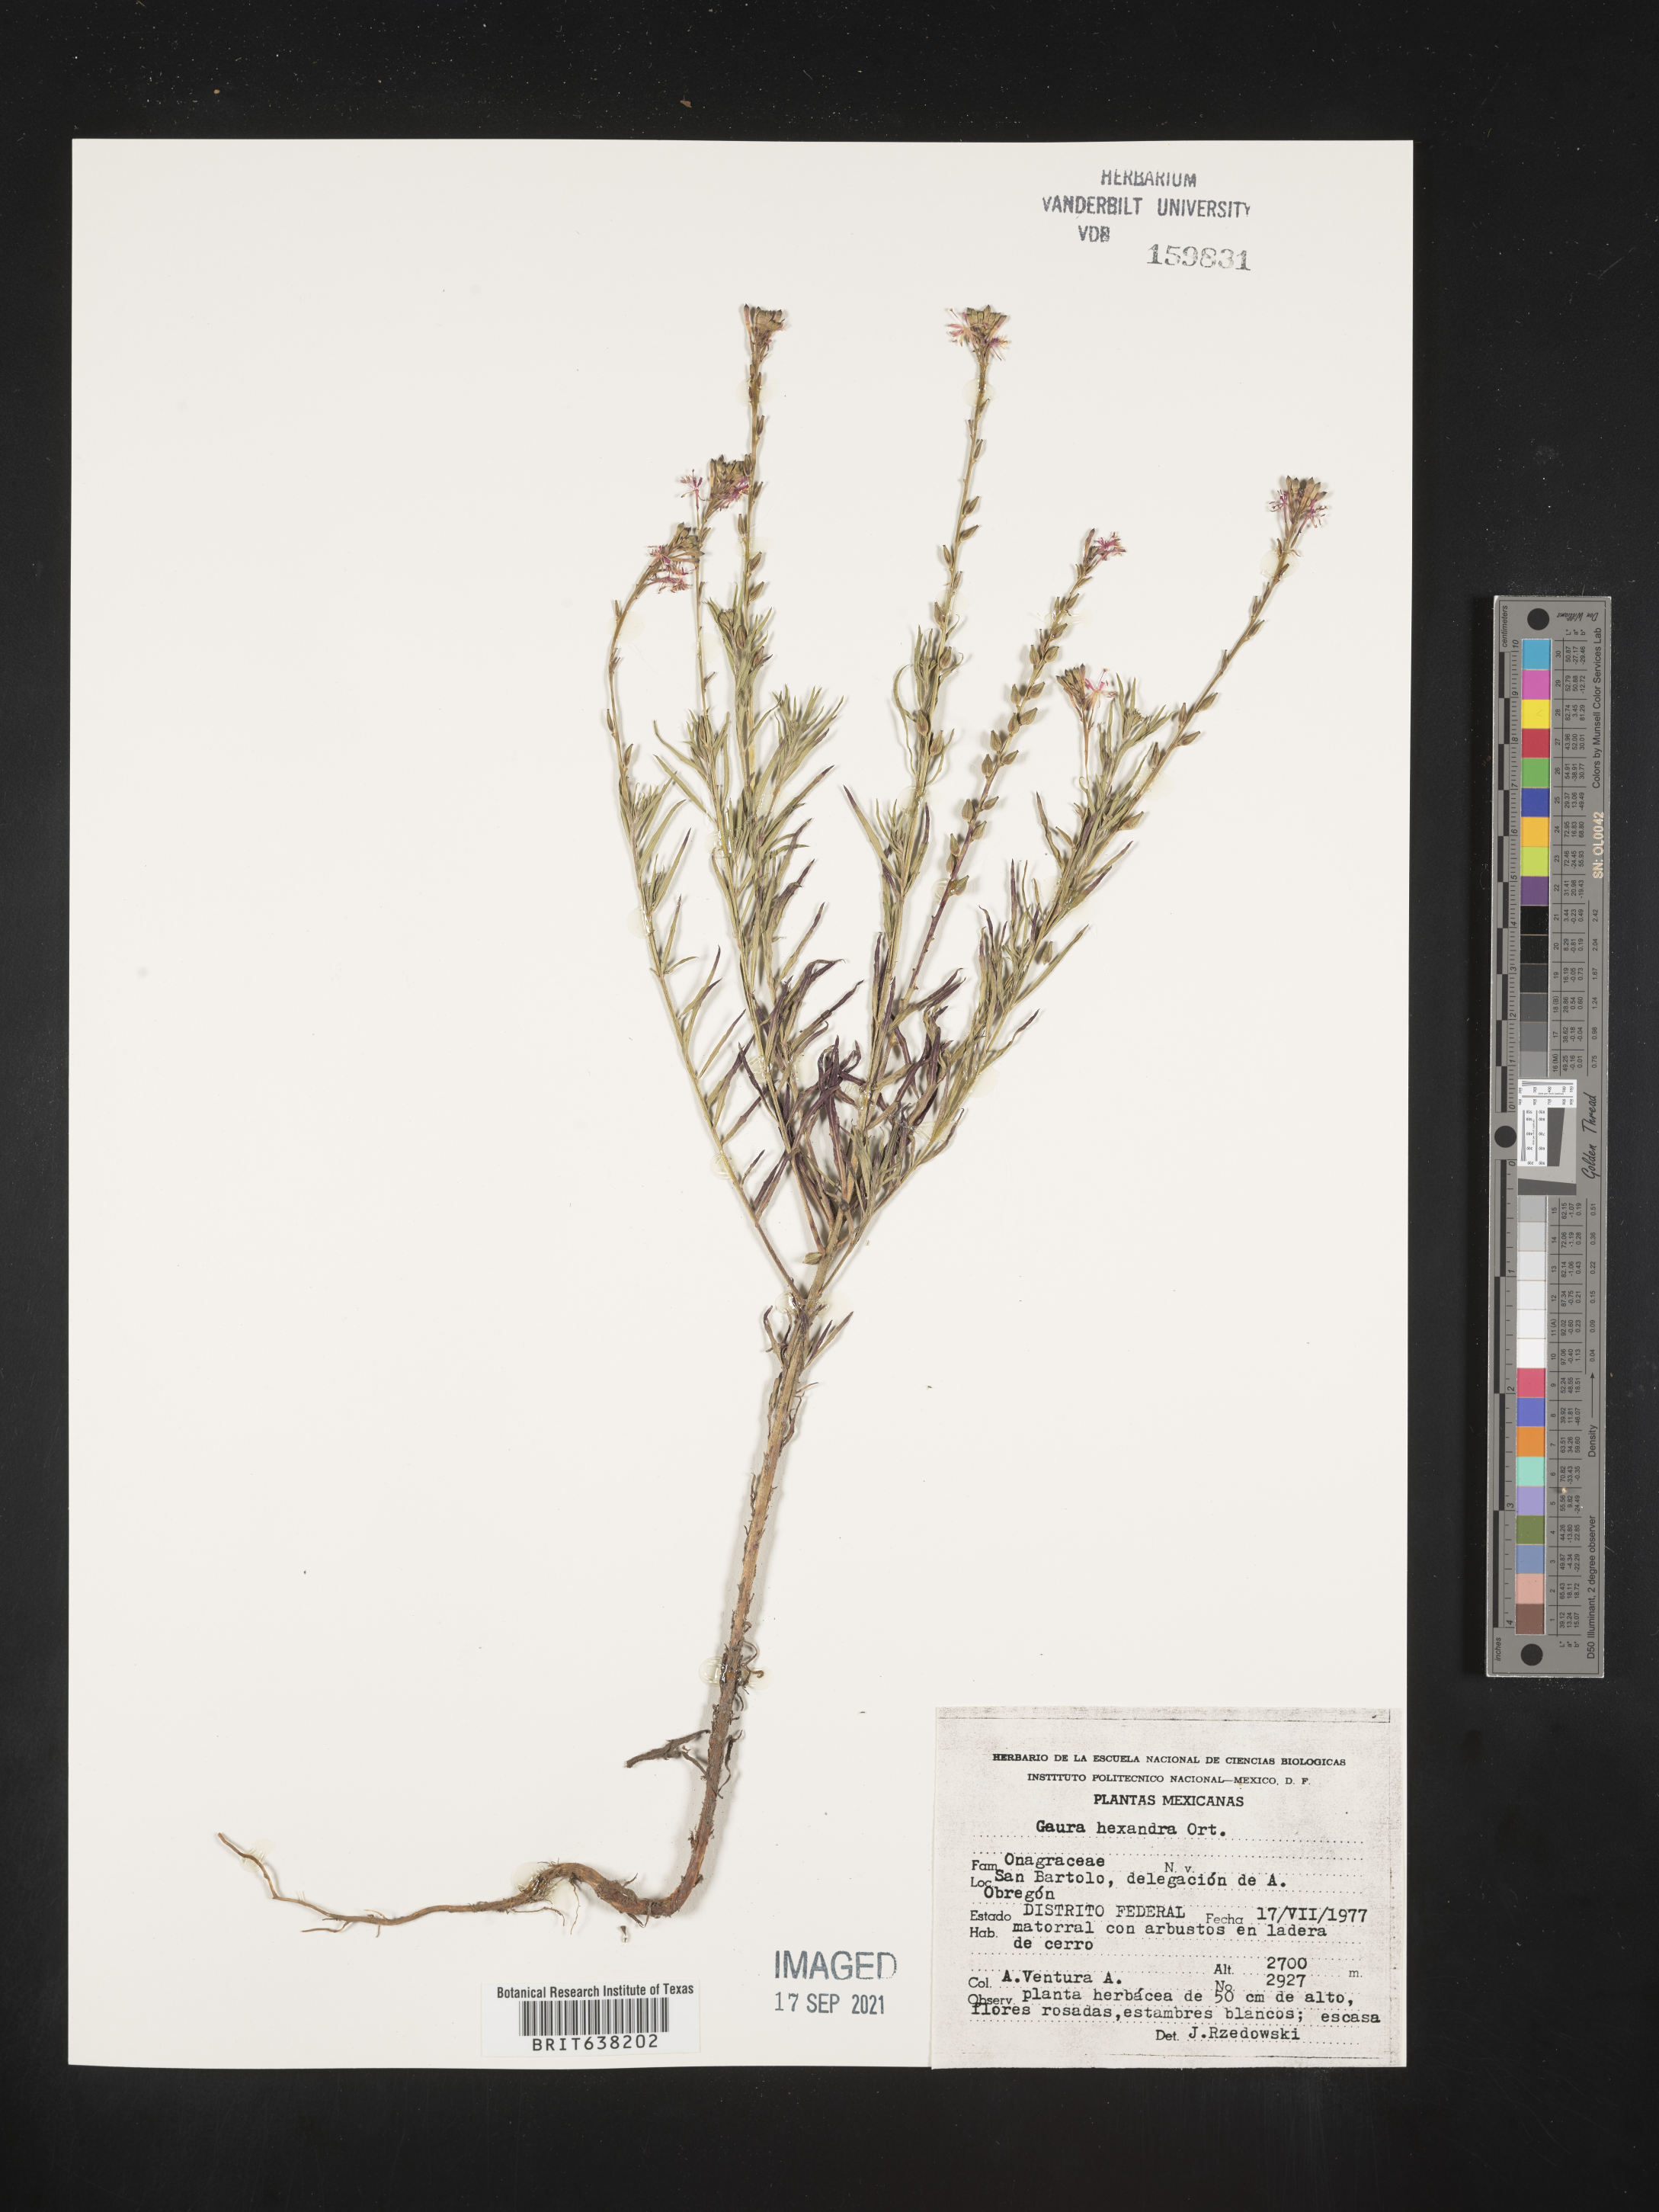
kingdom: Plantae
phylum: Tracheophyta
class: Magnoliopsida
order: Myrtales
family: Onagraceae
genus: Oenothera
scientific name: Oenothera
